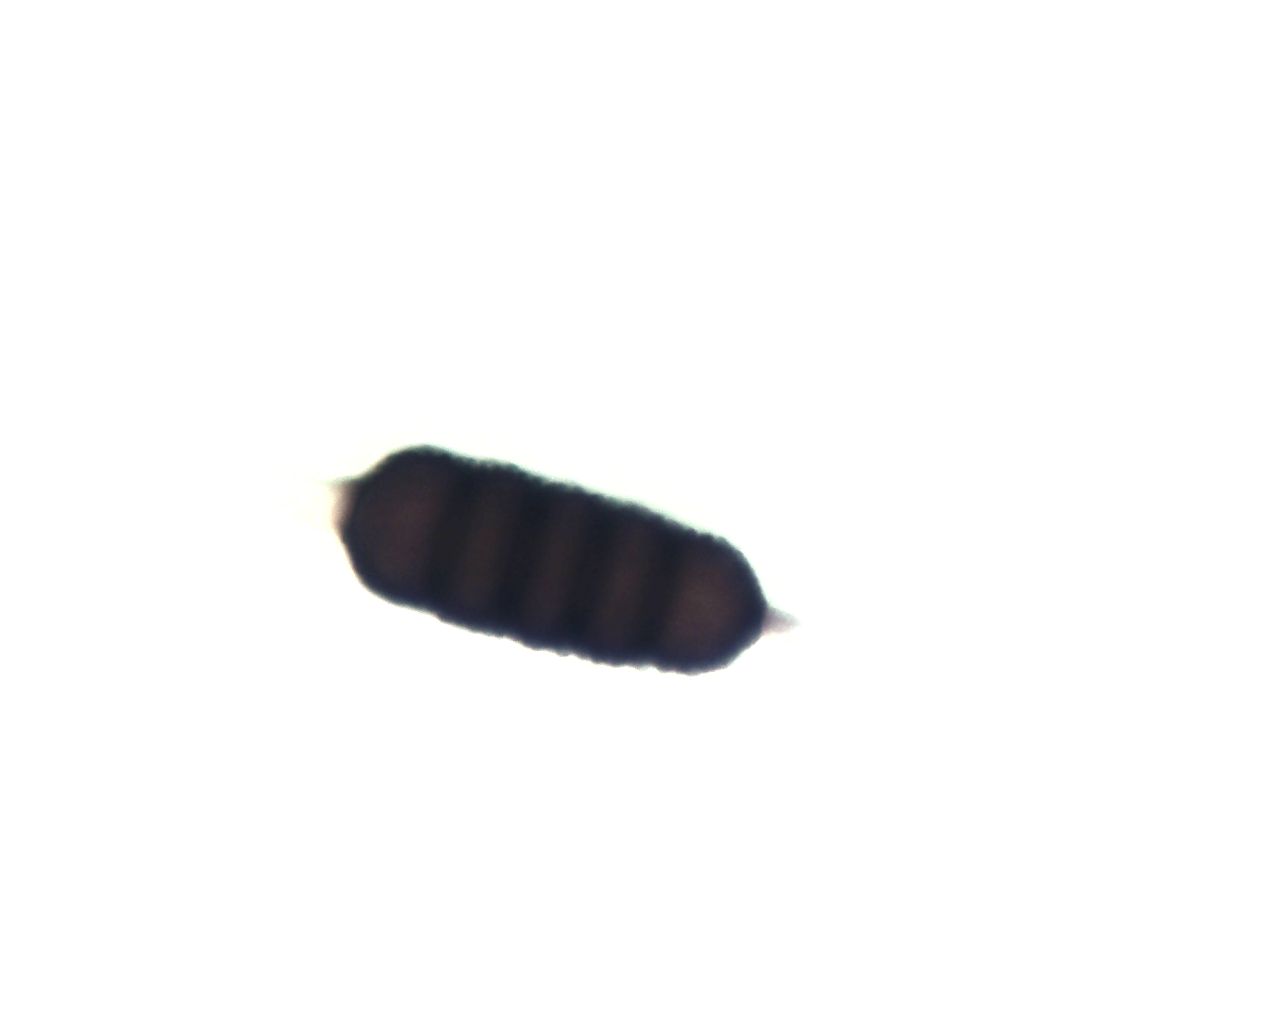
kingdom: Fungi
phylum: Basidiomycota
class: Pucciniomycetes
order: Pucciniales
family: Phragmidiaceae
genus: Phragmidium
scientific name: Phragmidium violaceum
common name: violet flercellerust
